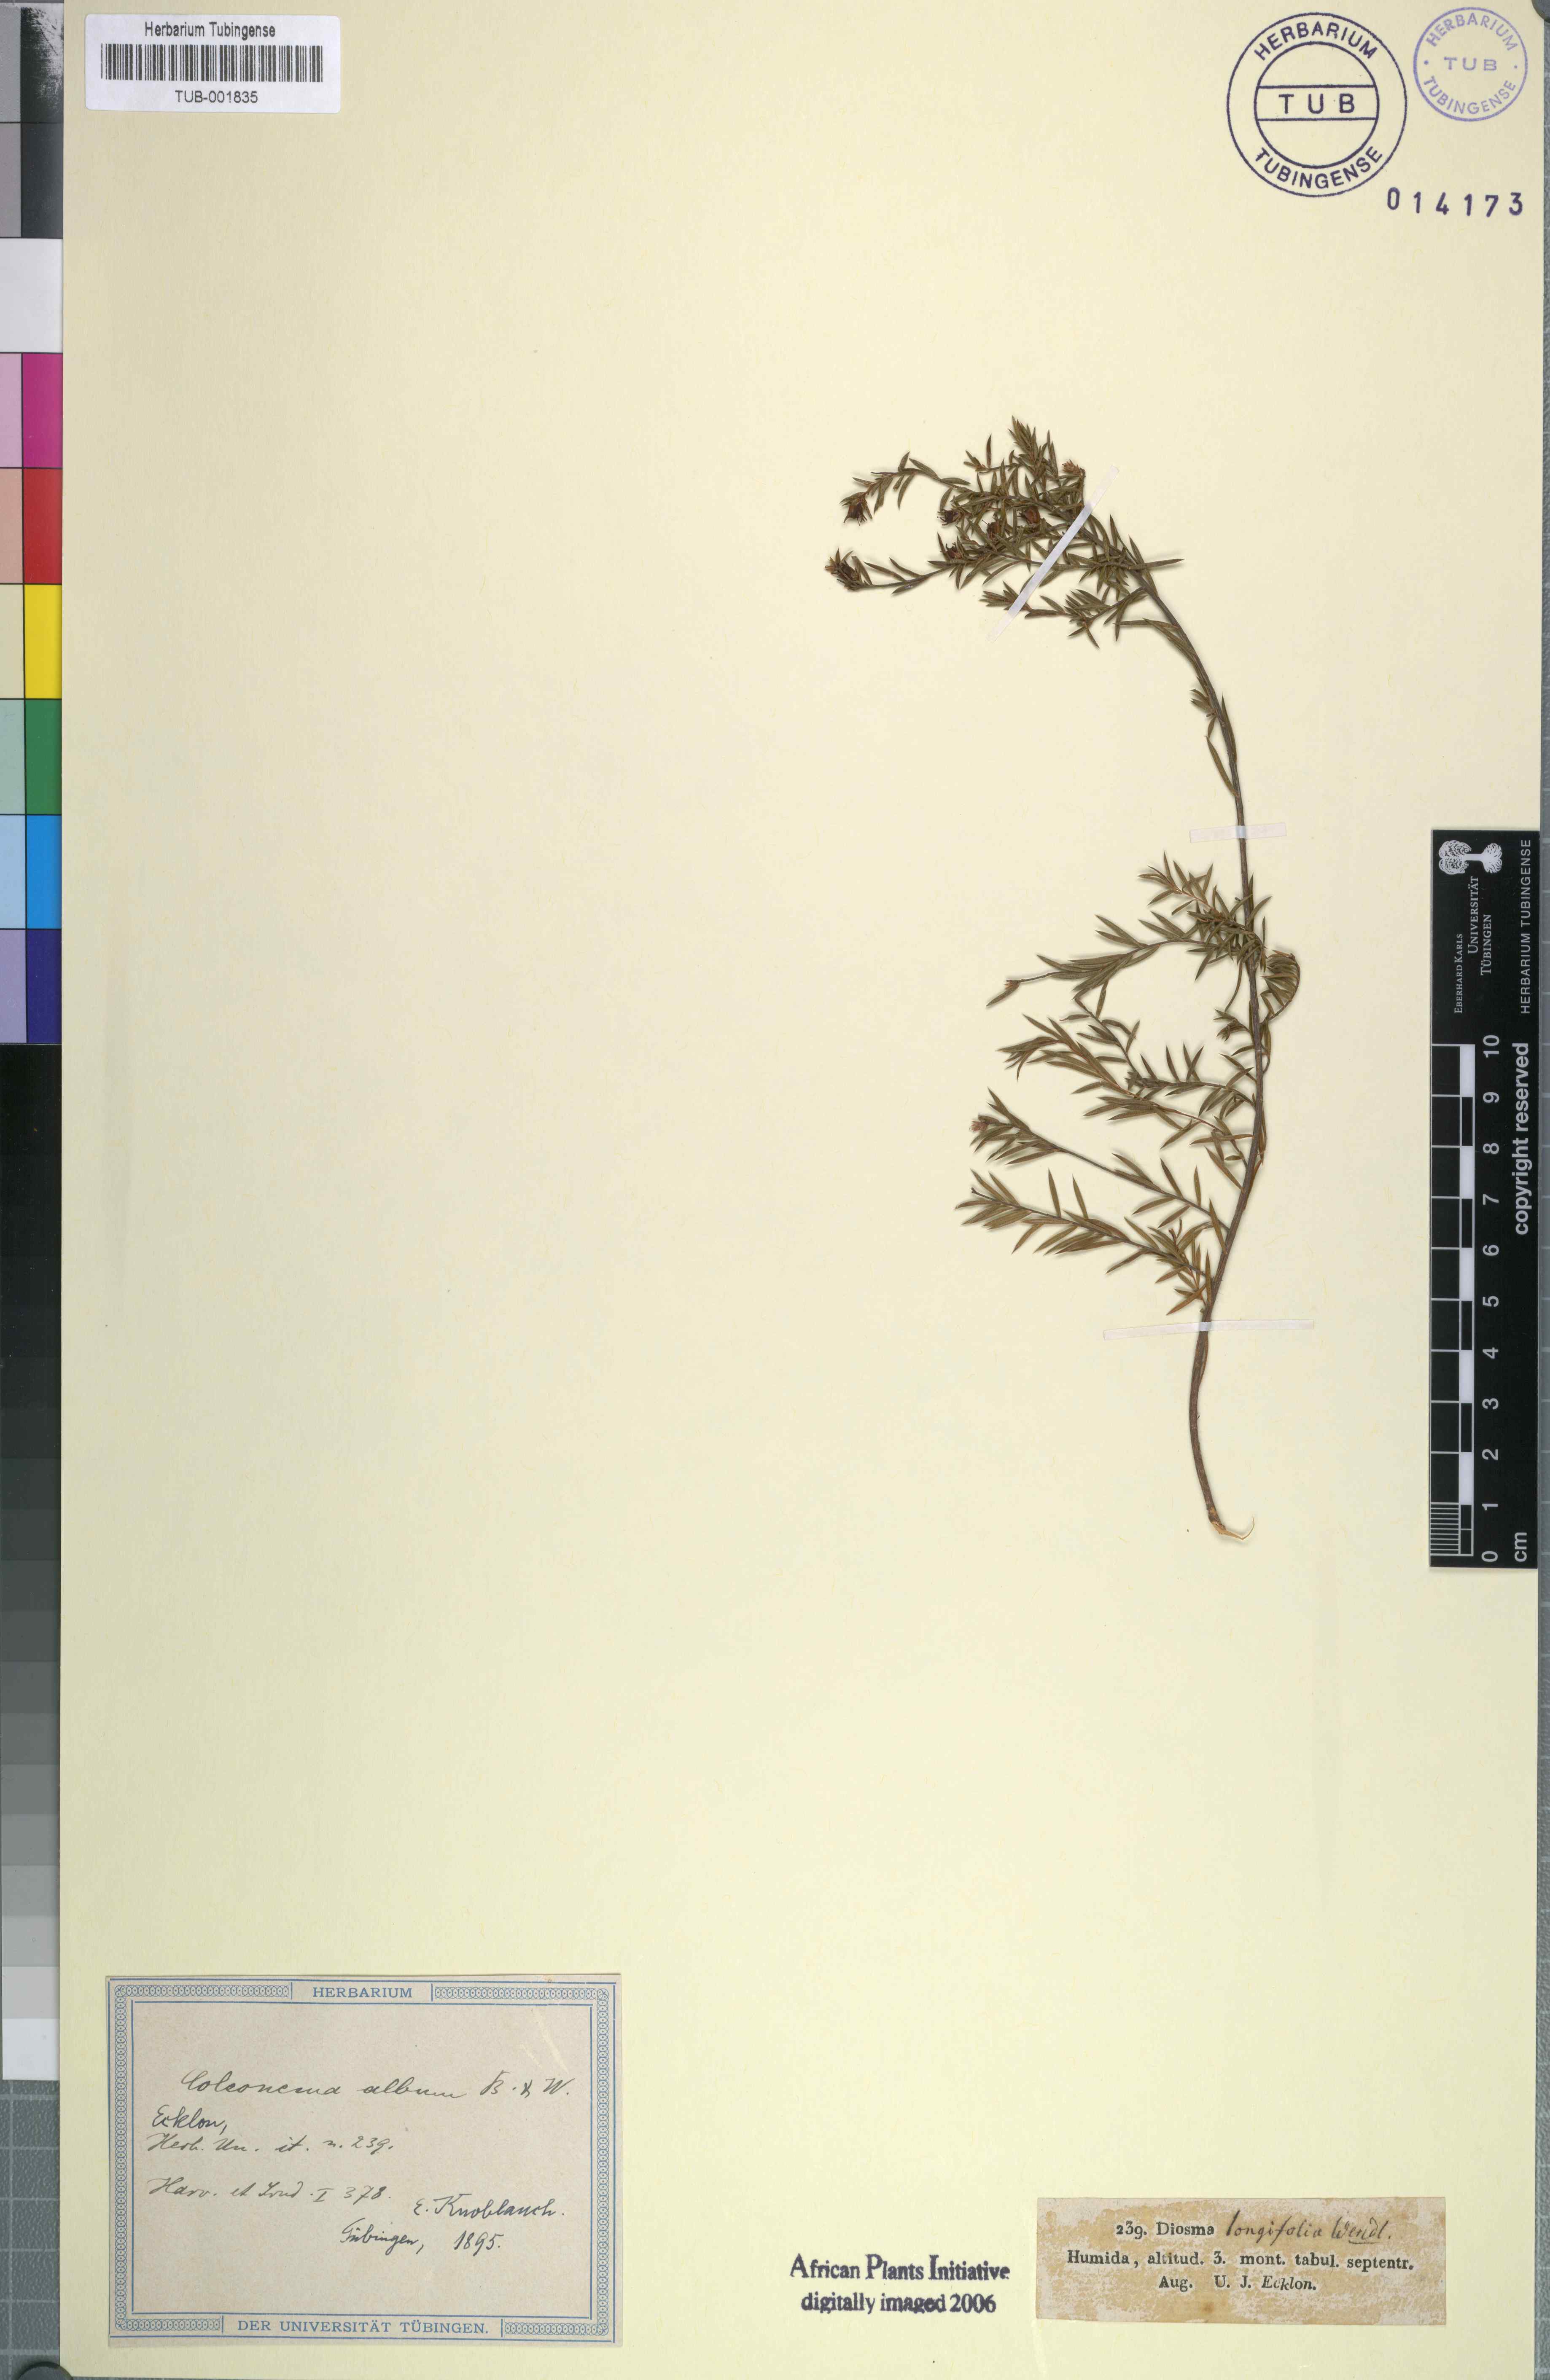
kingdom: Plantae
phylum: Tracheophyta
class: Magnoliopsida
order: Sapindales
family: Rutaceae
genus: Coleonema
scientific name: Coleonema album
